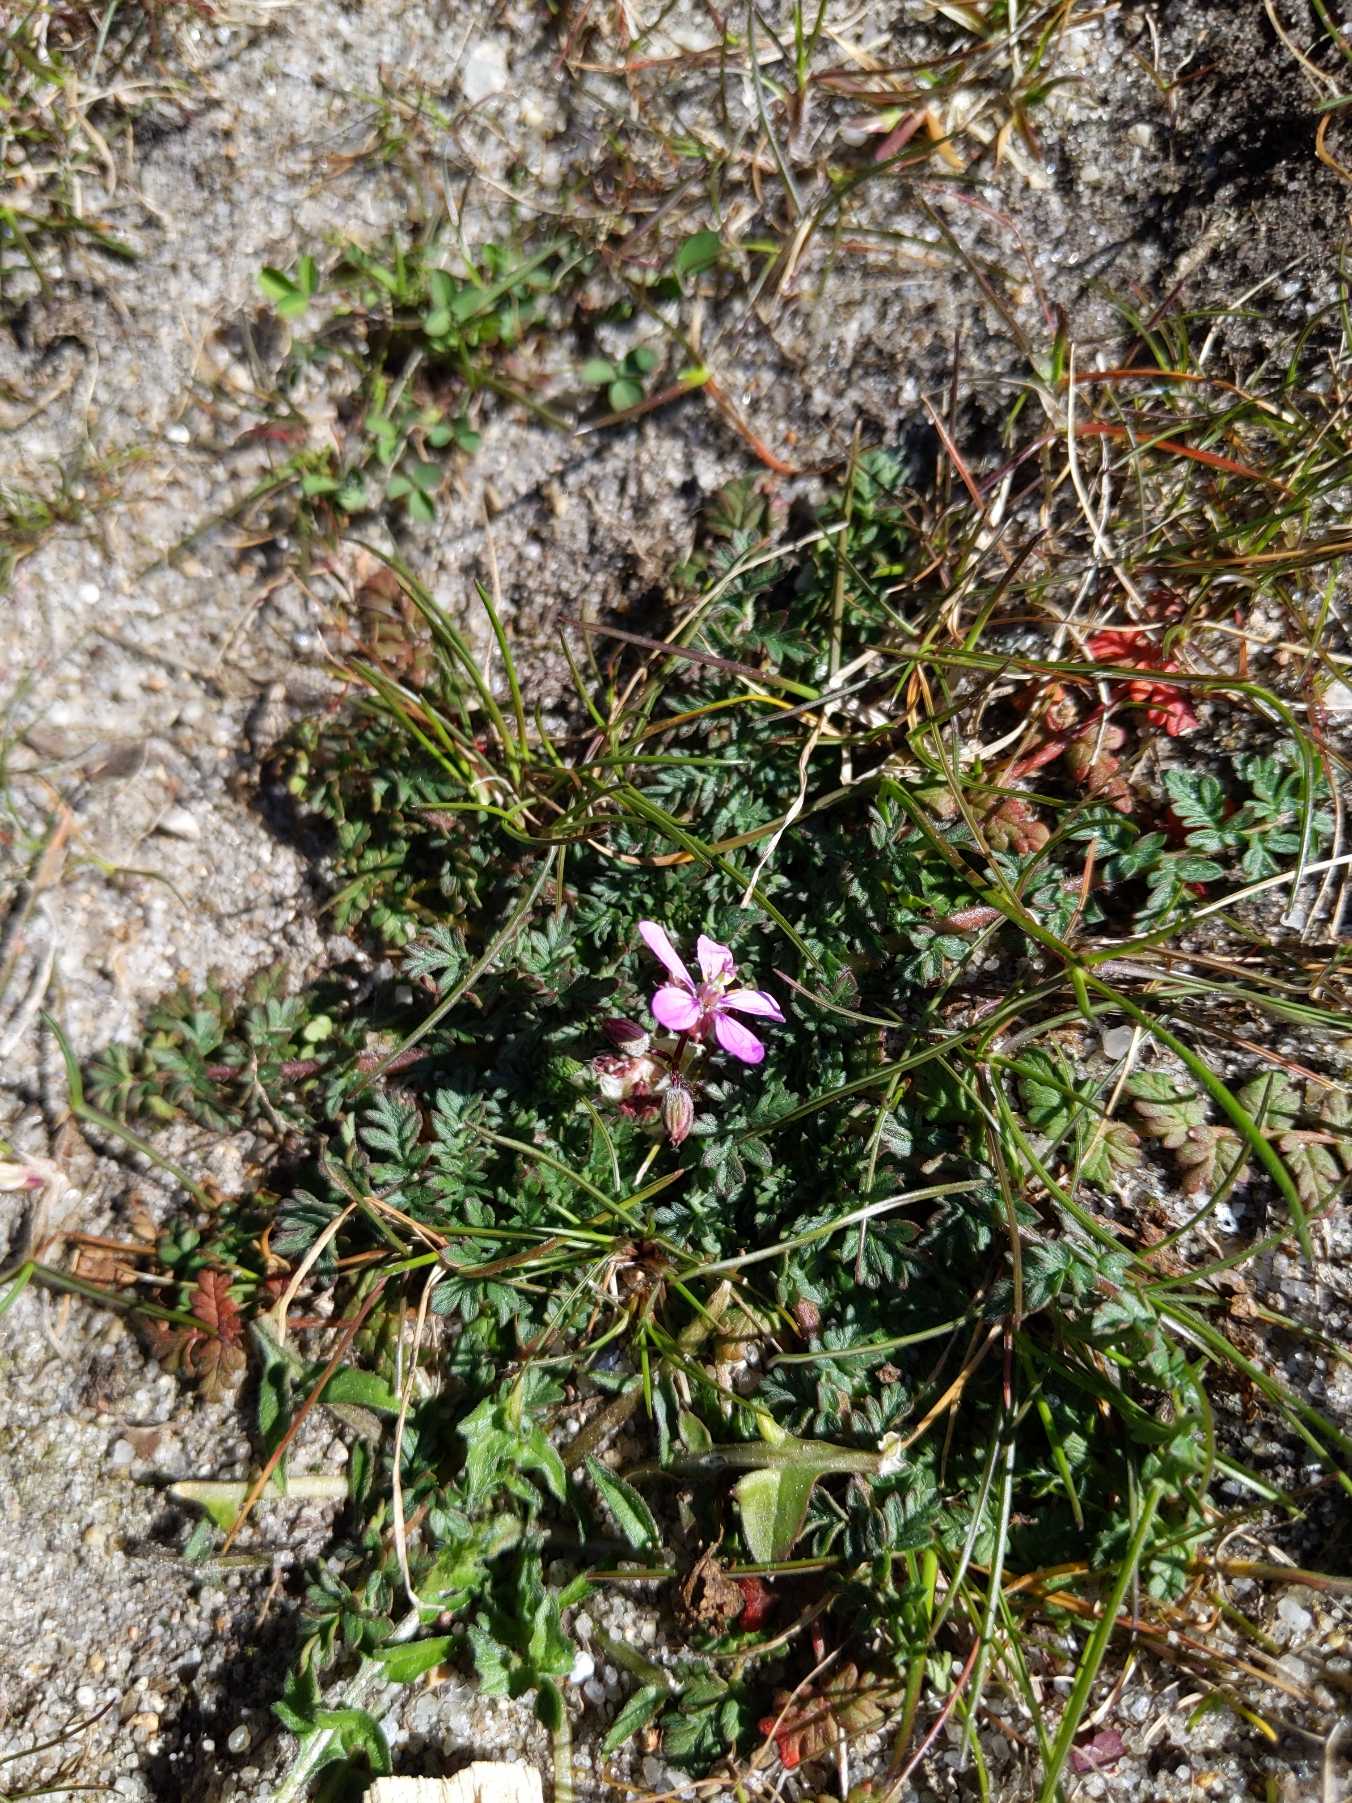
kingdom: Plantae
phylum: Tracheophyta
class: Magnoliopsida
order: Geraniales
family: Geraniaceae
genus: Erodium
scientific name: Erodium cicutarium
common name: Hejrenæb
